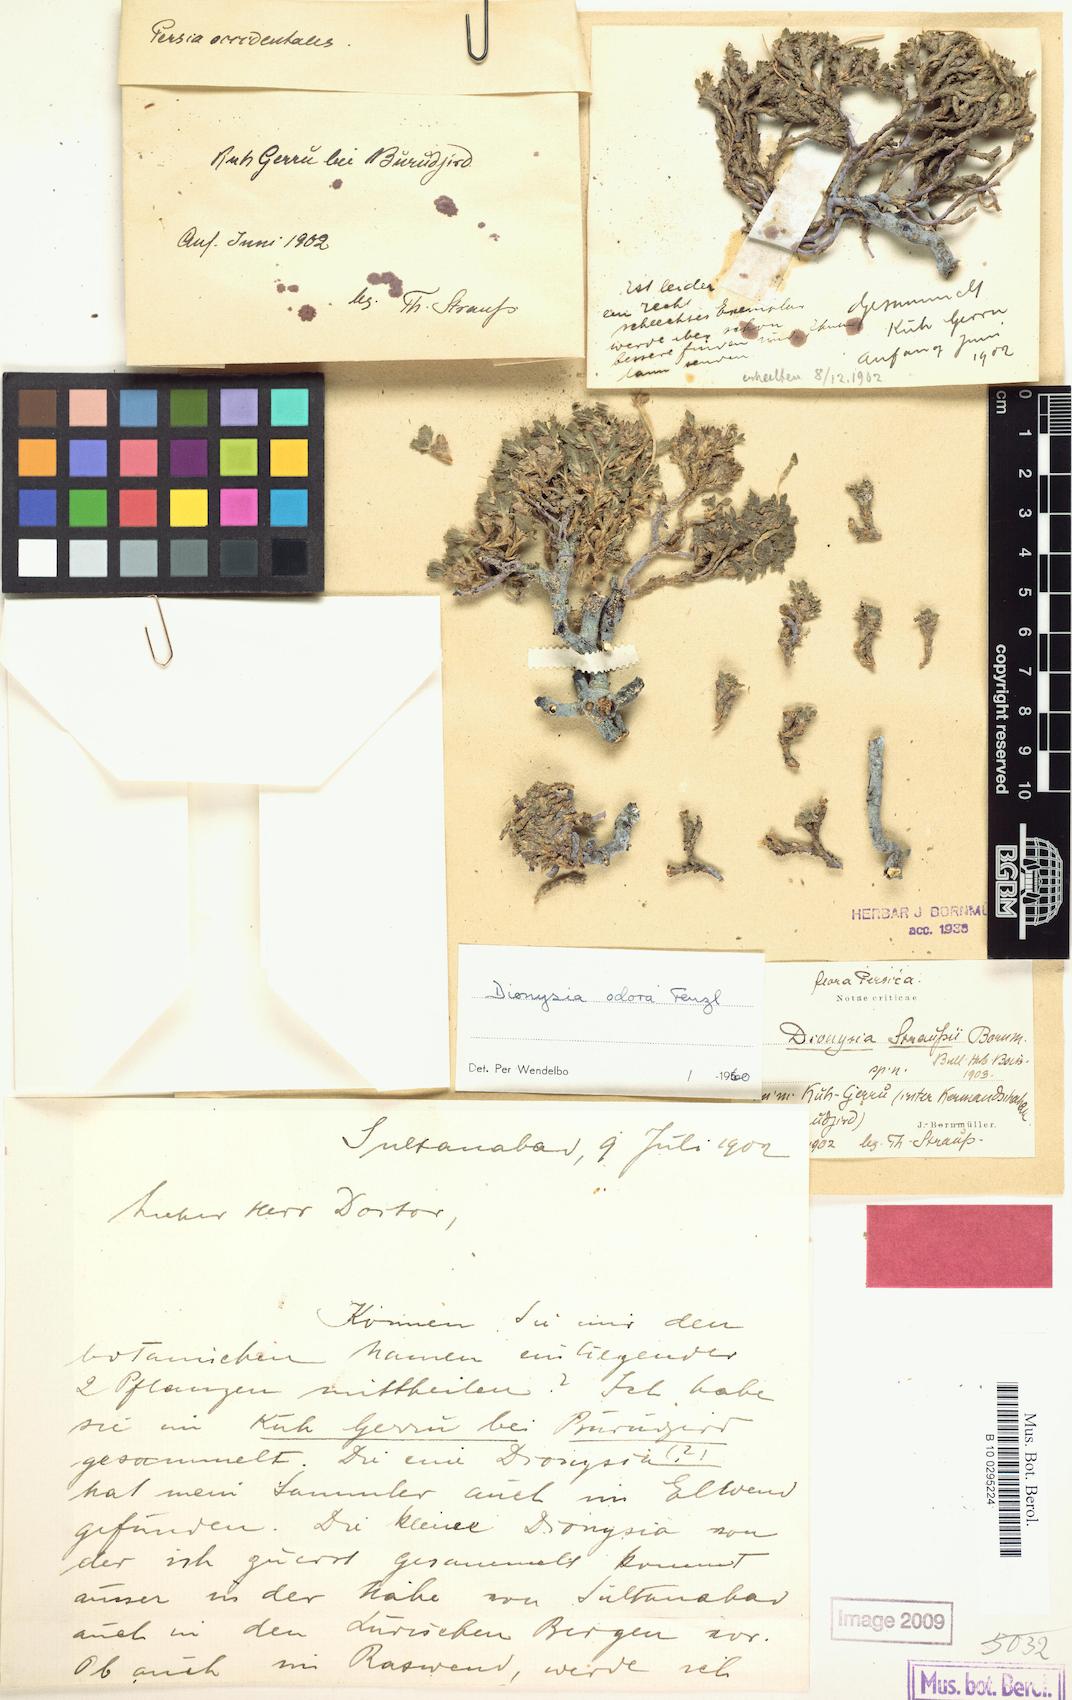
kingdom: Plantae
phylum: Tracheophyta
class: Magnoliopsida
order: Ericales
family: Primulaceae
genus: Dionysia
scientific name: Dionysia odora
